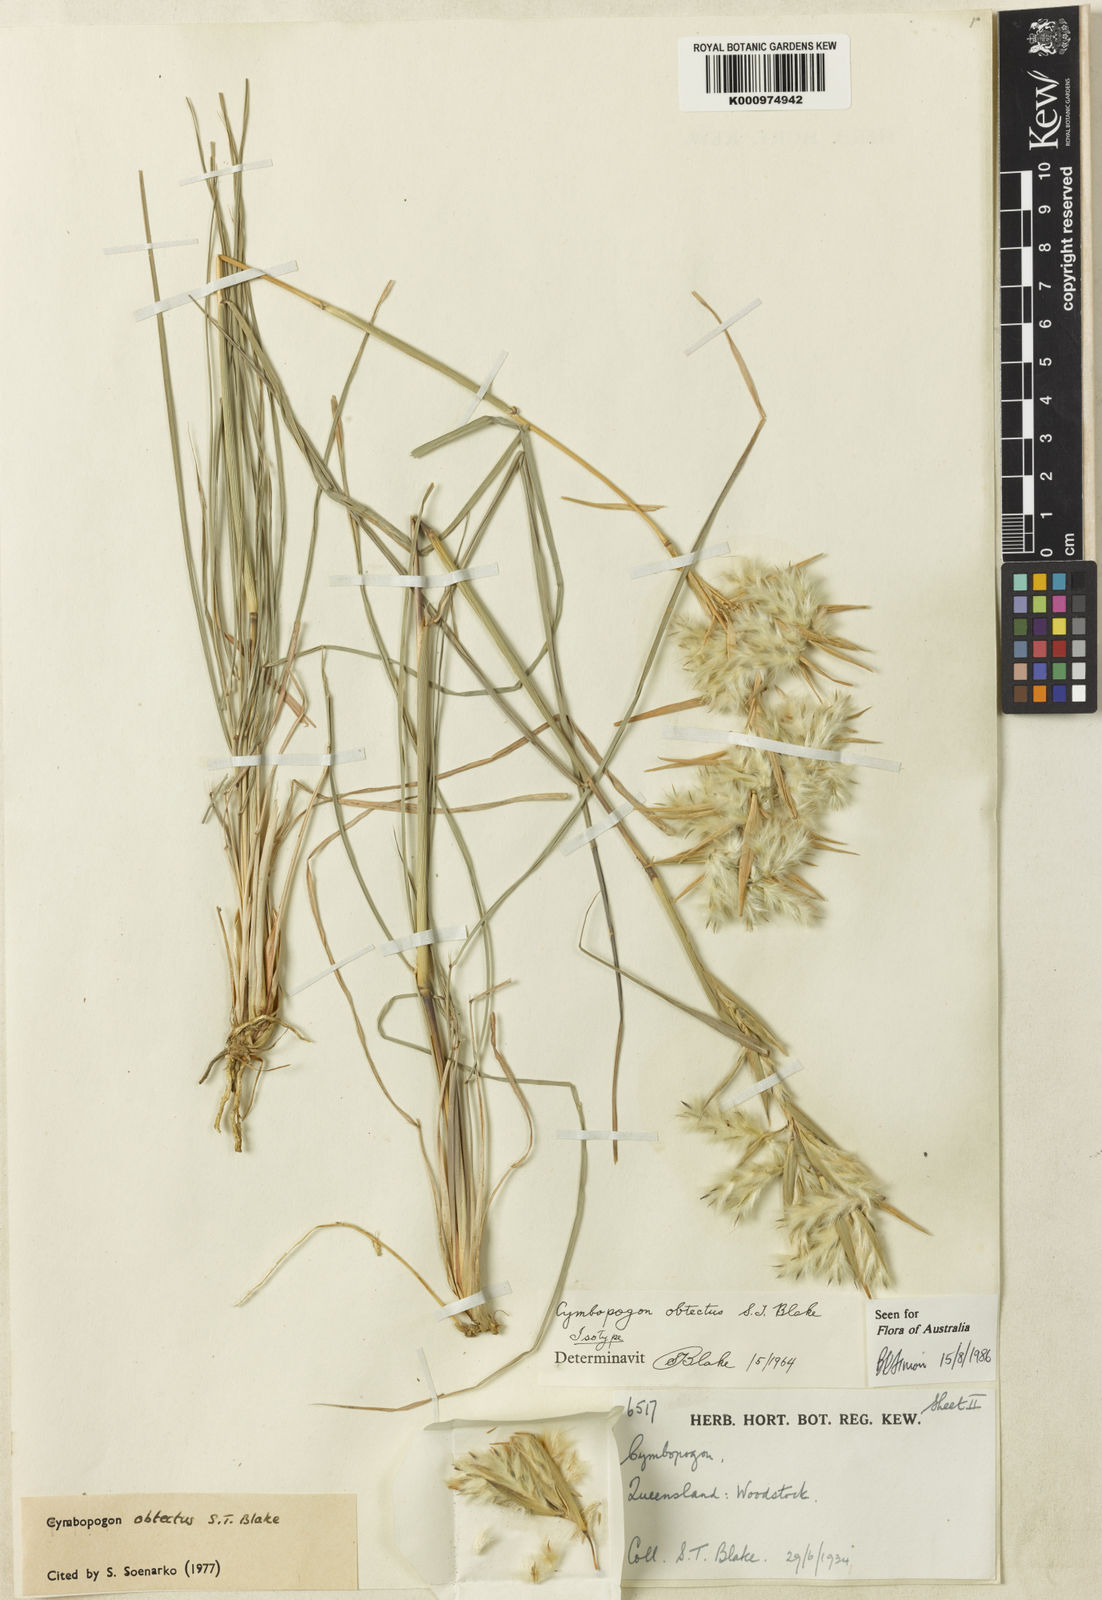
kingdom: Plantae
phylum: Tracheophyta
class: Liliopsida
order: Poales
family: Poaceae
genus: Cymbopogon
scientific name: Cymbopogon obtectus
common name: Silky heads
